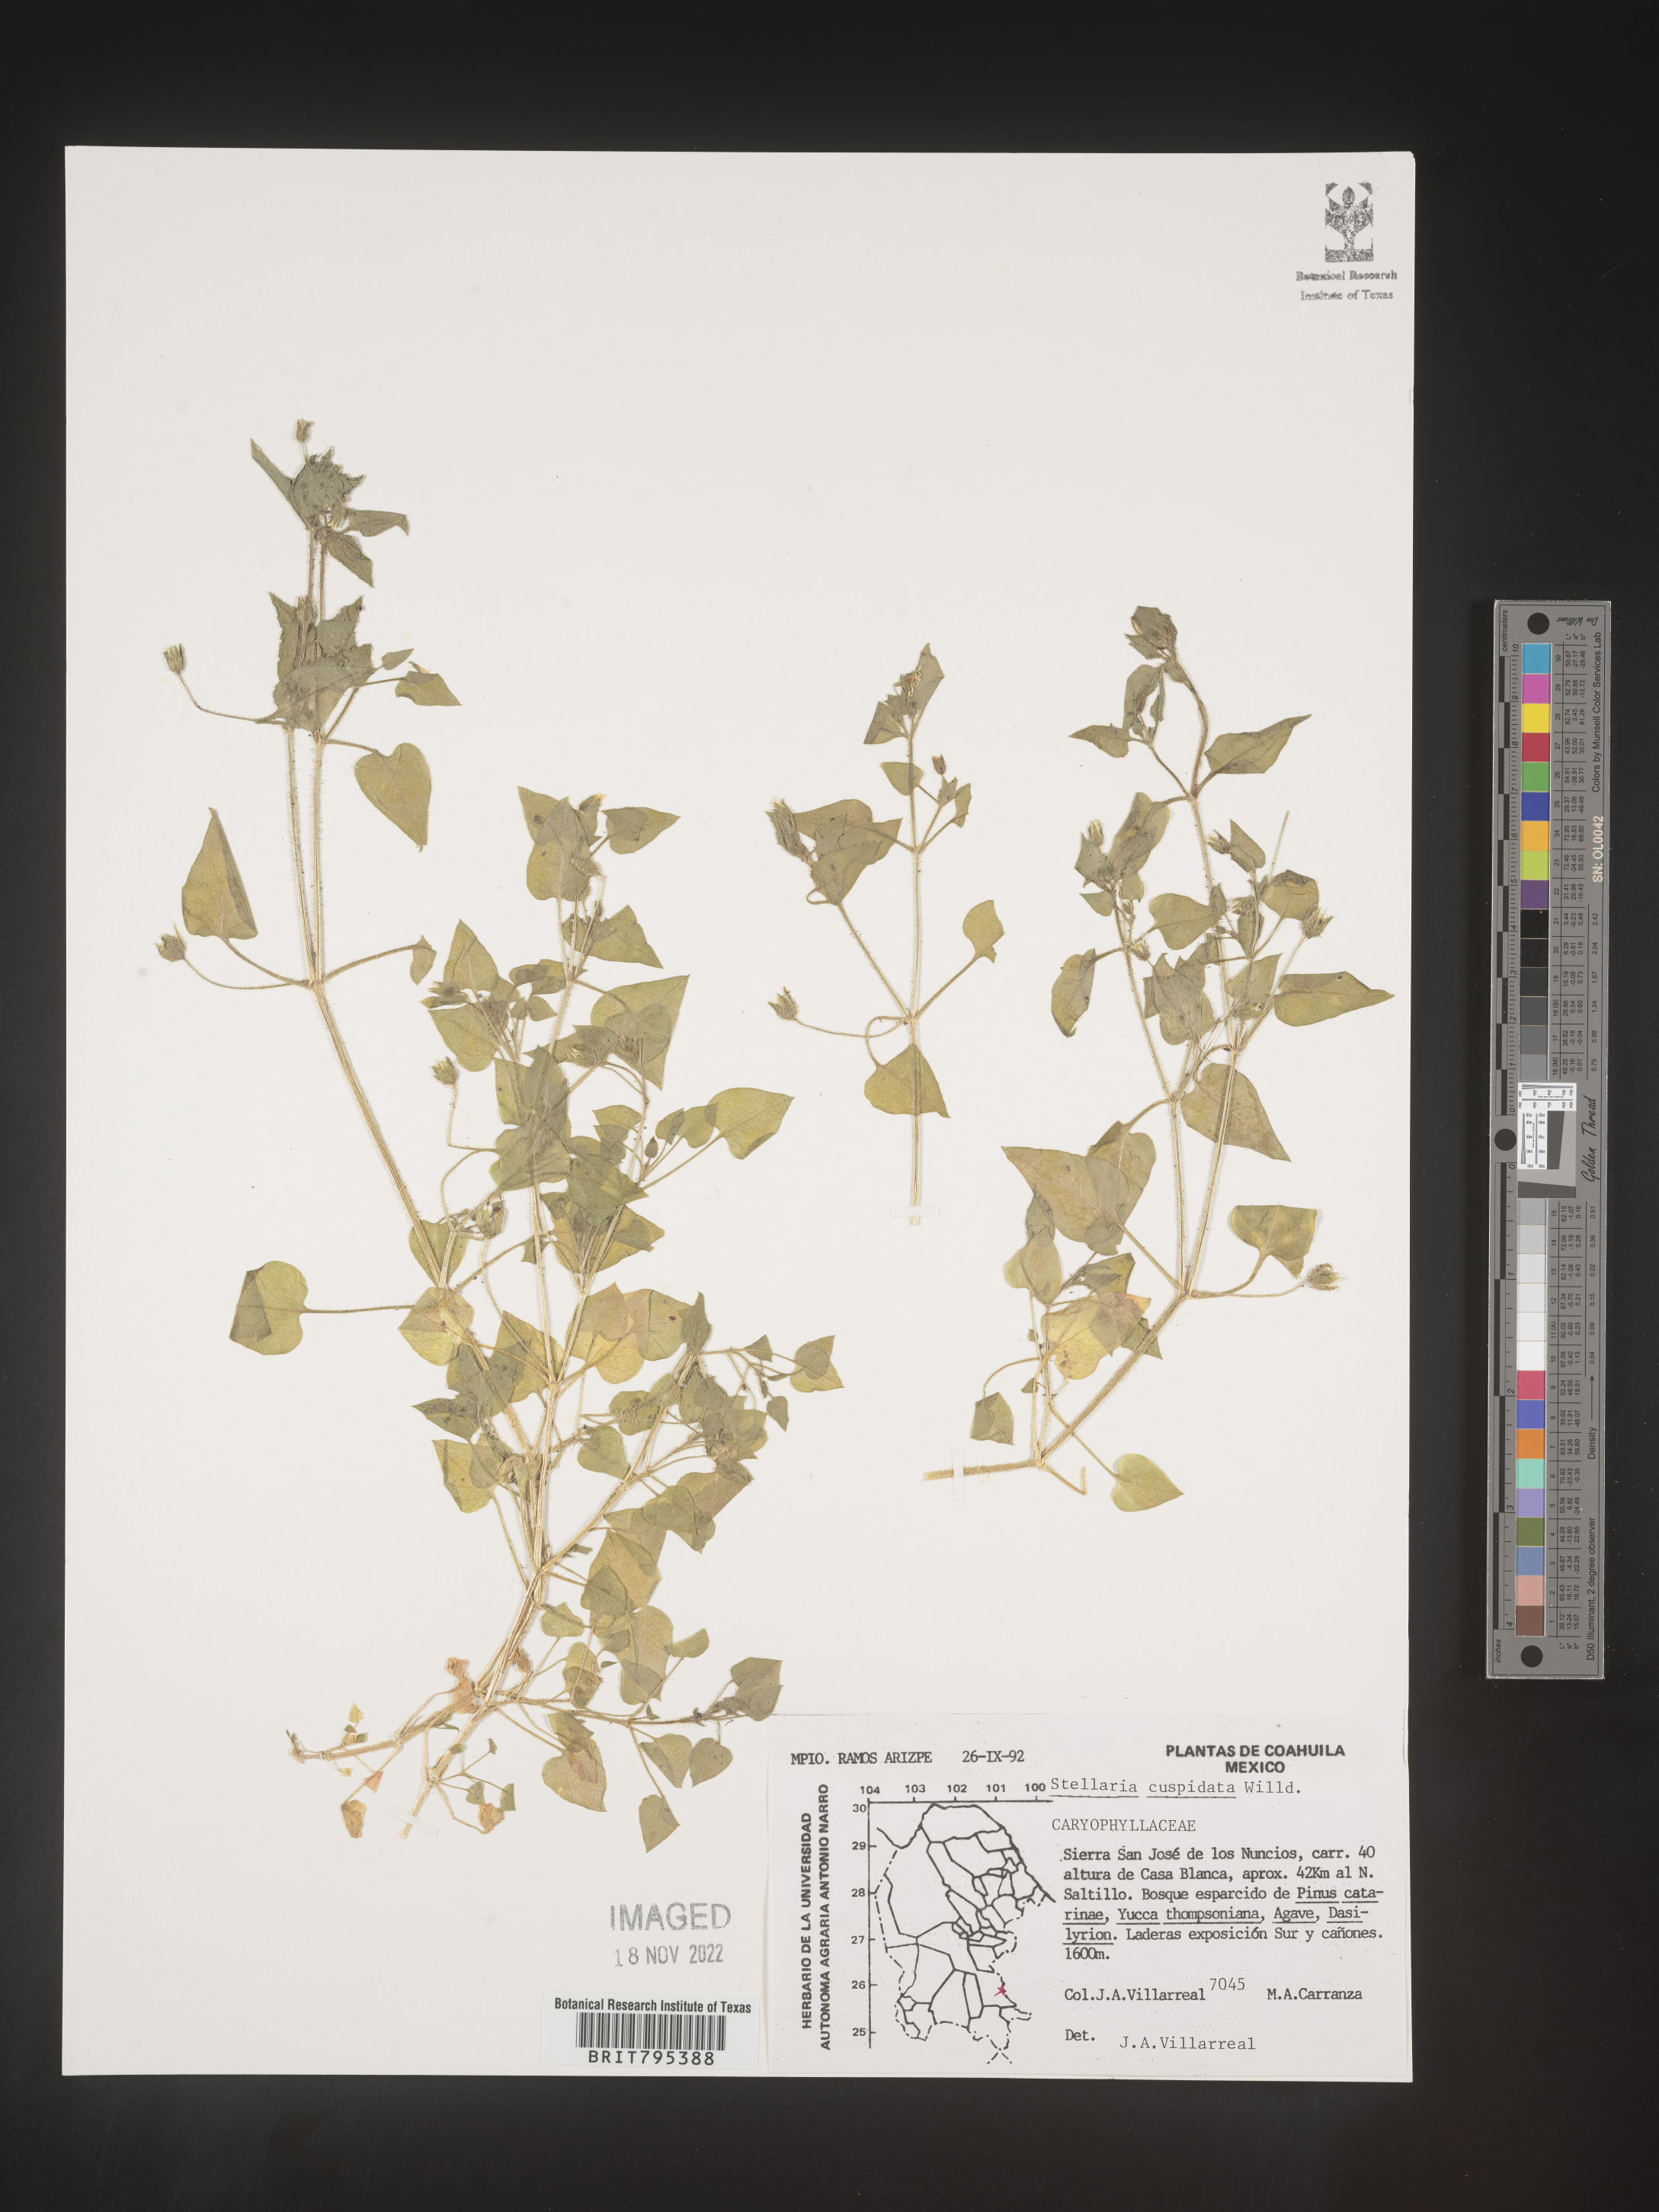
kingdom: Plantae
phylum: Tracheophyta
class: Magnoliopsida
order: Caryophyllales
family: Caryophyllaceae
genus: Stellaria
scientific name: Stellaria
